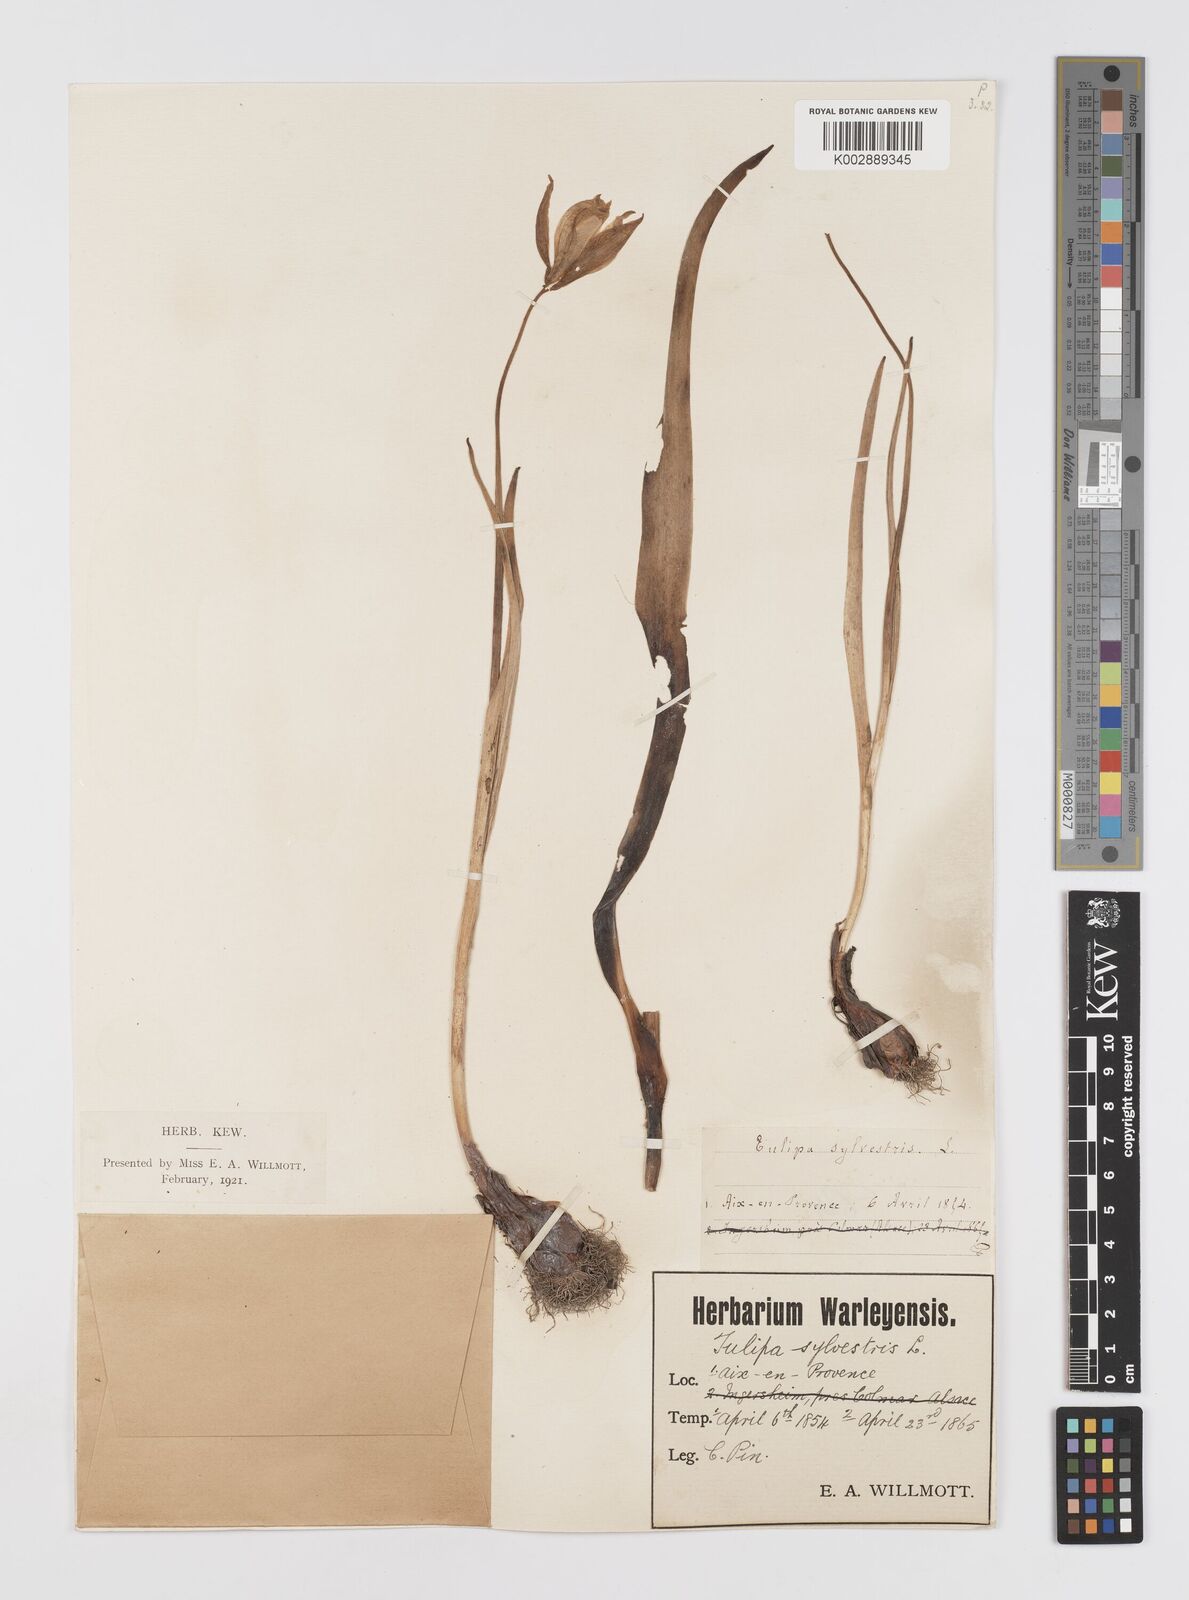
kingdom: Plantae
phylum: Tracheophyta
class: Liliopsida
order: Liliales
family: Liliaceae
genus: Tulipa
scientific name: Tulipa sylvestris
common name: Wild tulip
